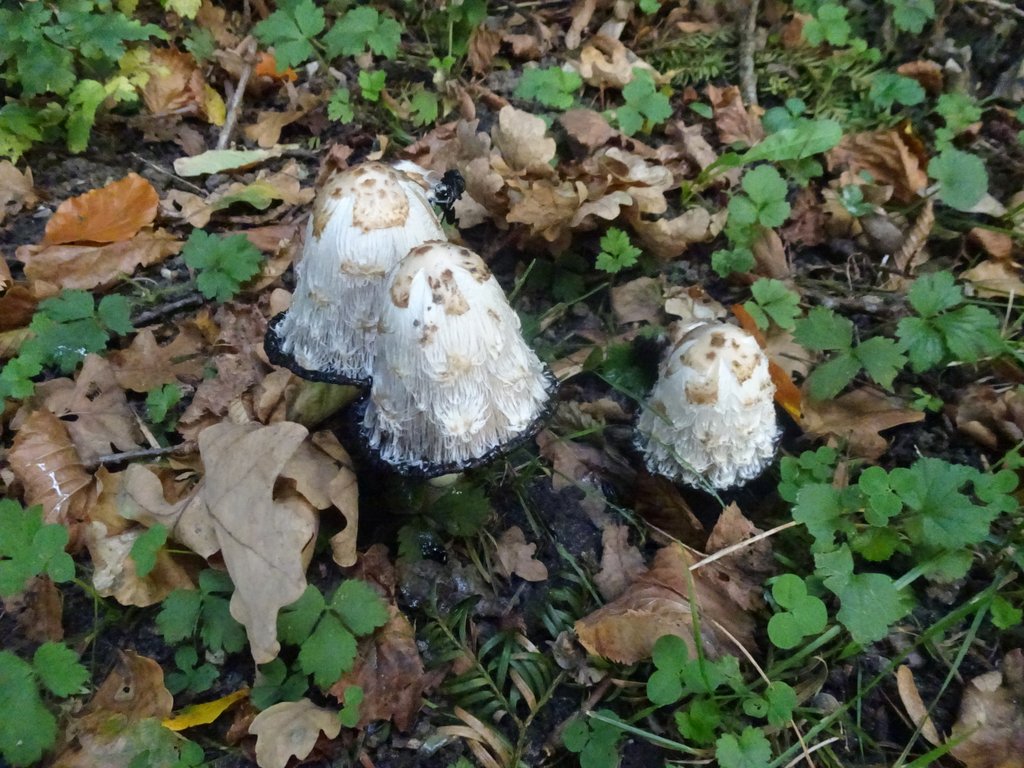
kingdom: Fungi
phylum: Basidiomycota
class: Agaricomycetes
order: Agaricales
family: Agaricaceae
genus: Coprinus
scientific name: Coprinus comatus
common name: stor parykhat
